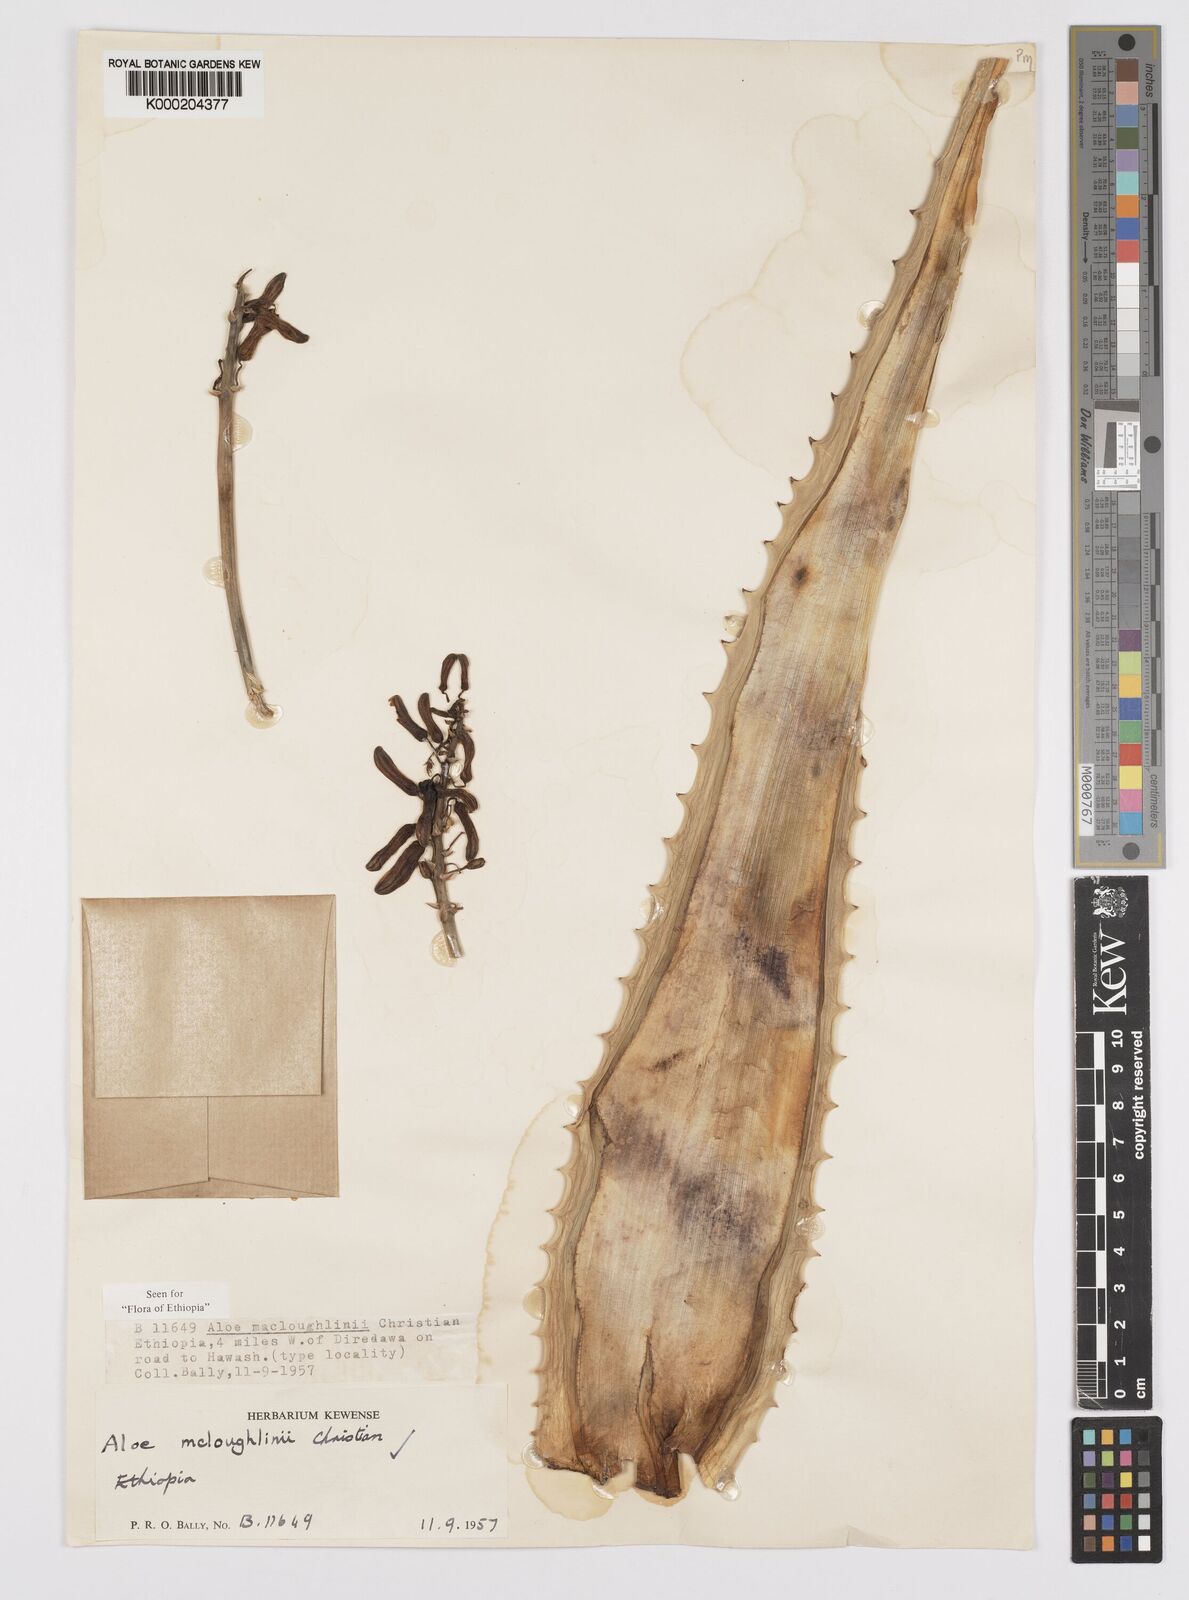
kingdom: Plantae
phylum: Tracheophyta
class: Liliopsida
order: Asparagales
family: Asphodelaceae
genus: Aloe
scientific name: Aloe
